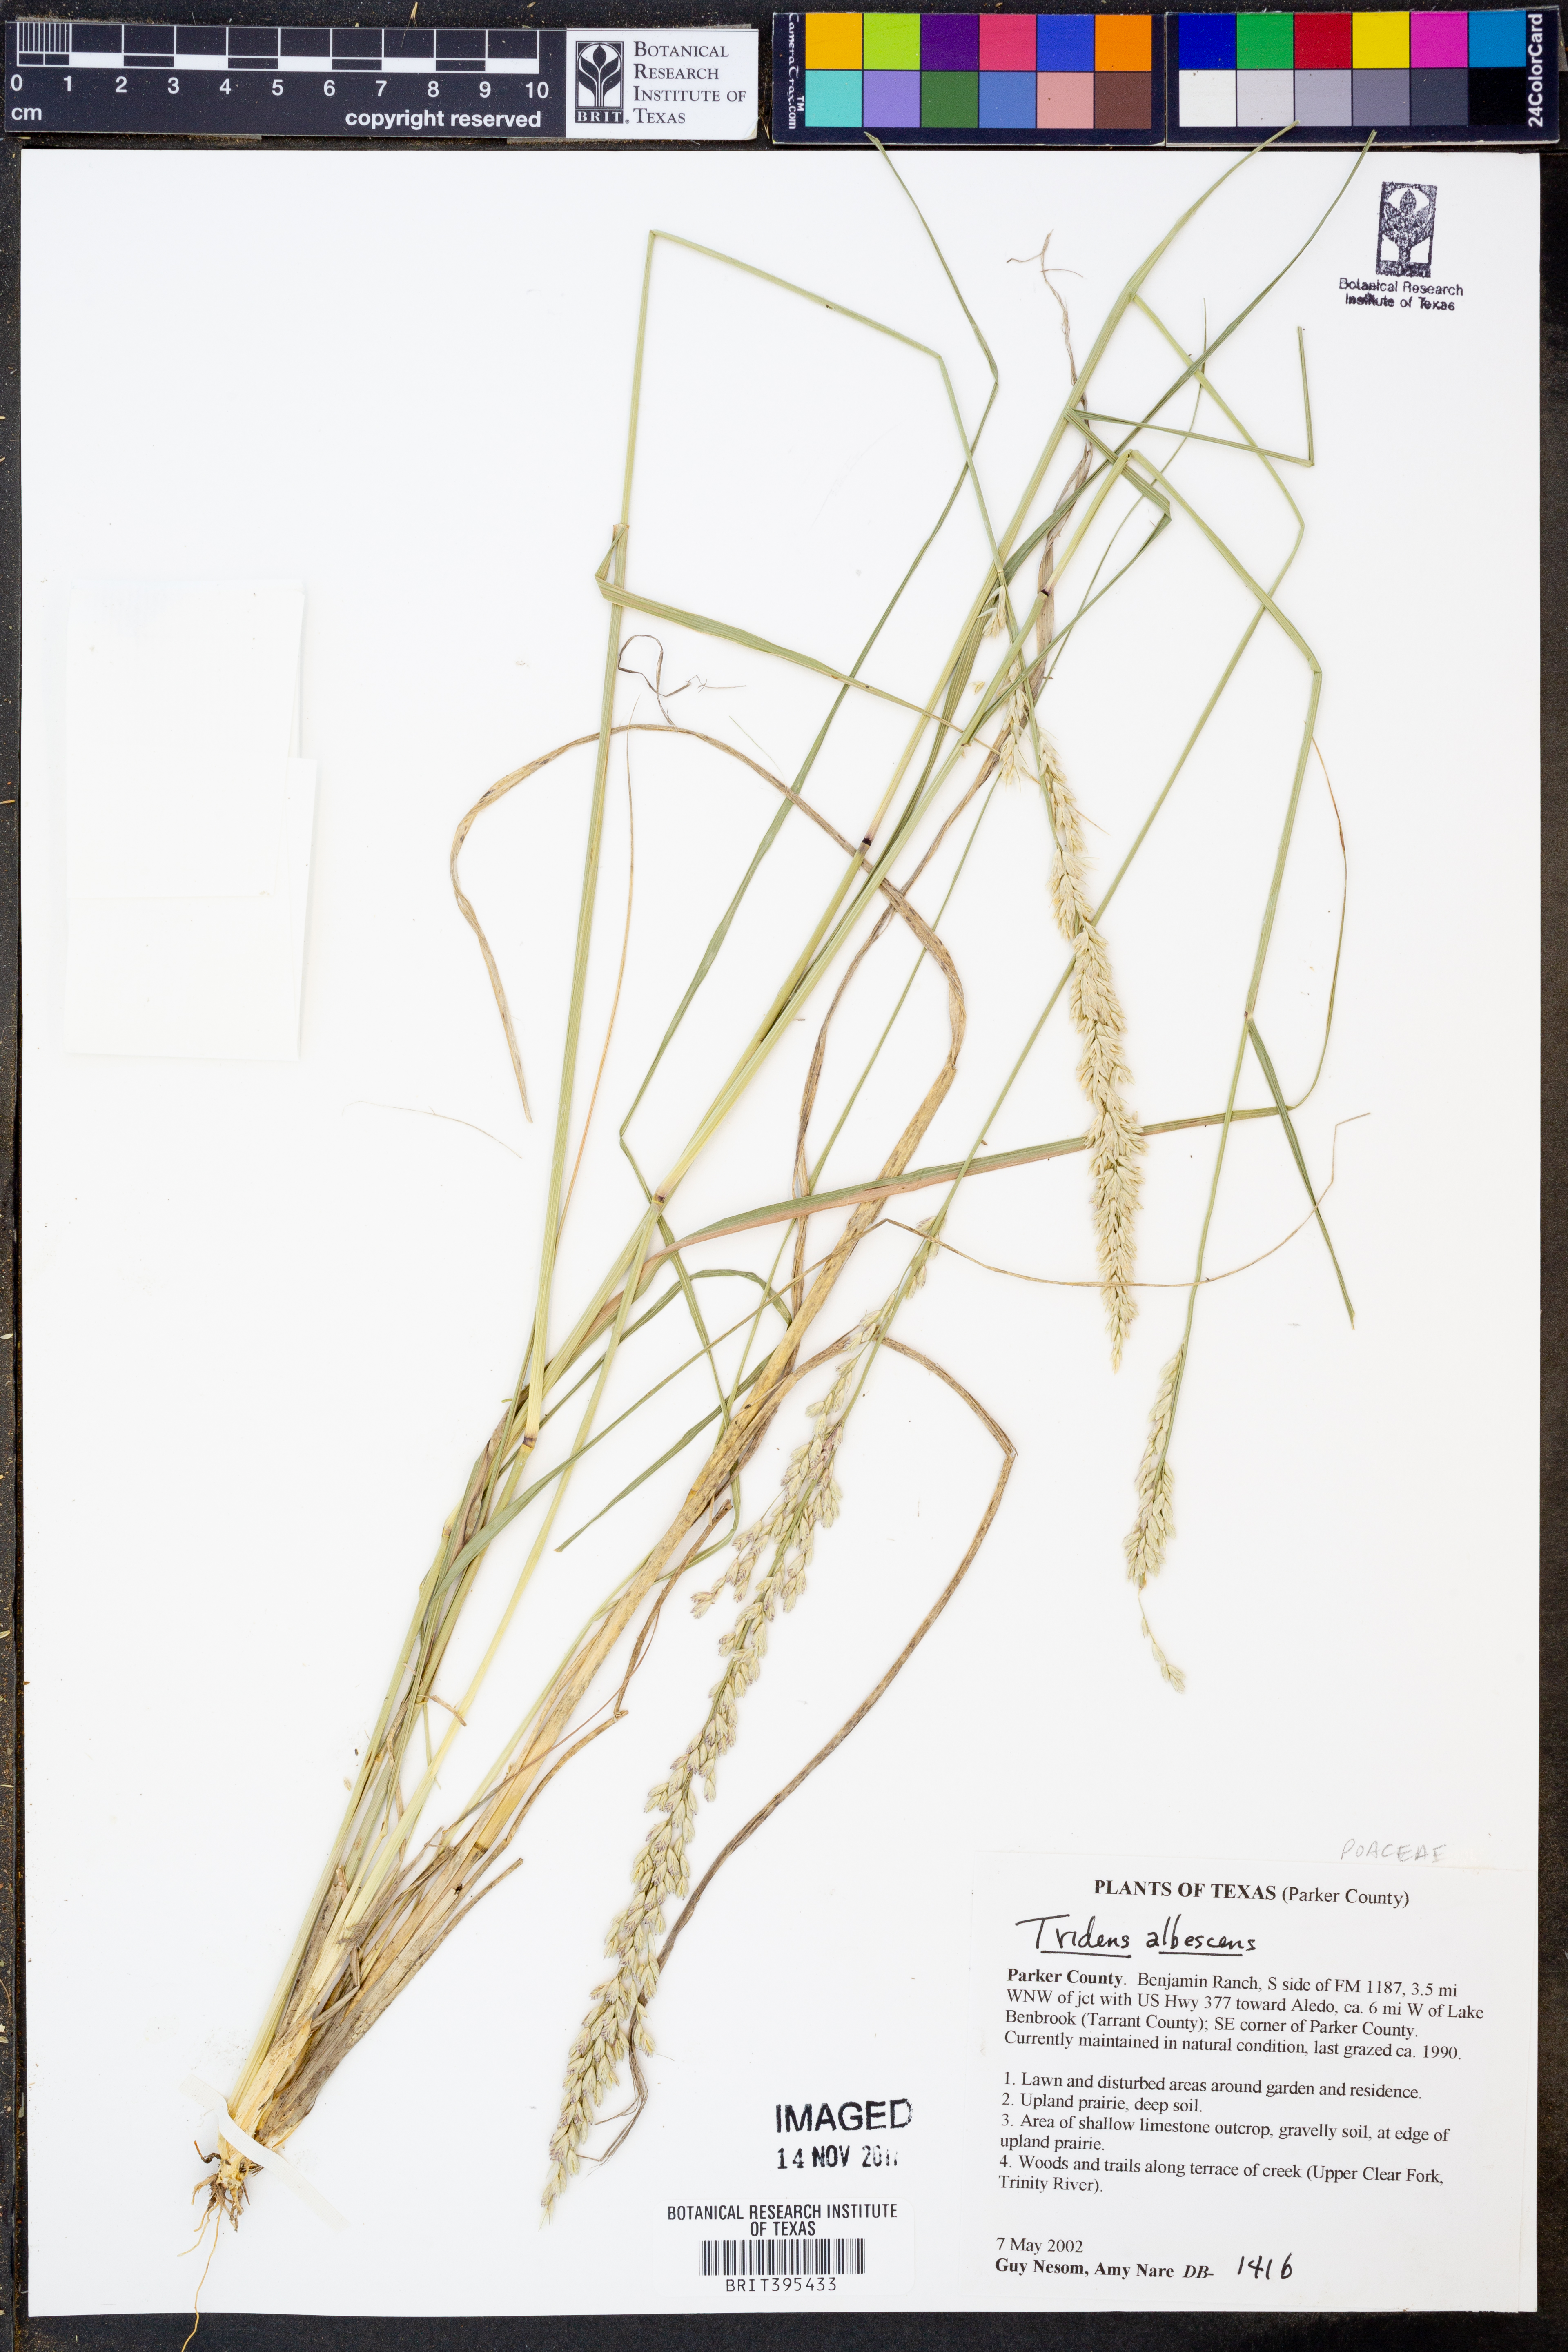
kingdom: Plantae
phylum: Tracheophyta
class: Liliopsida
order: Poales
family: Poaceae
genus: Tridens
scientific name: Tridens albescens
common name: White tridens
